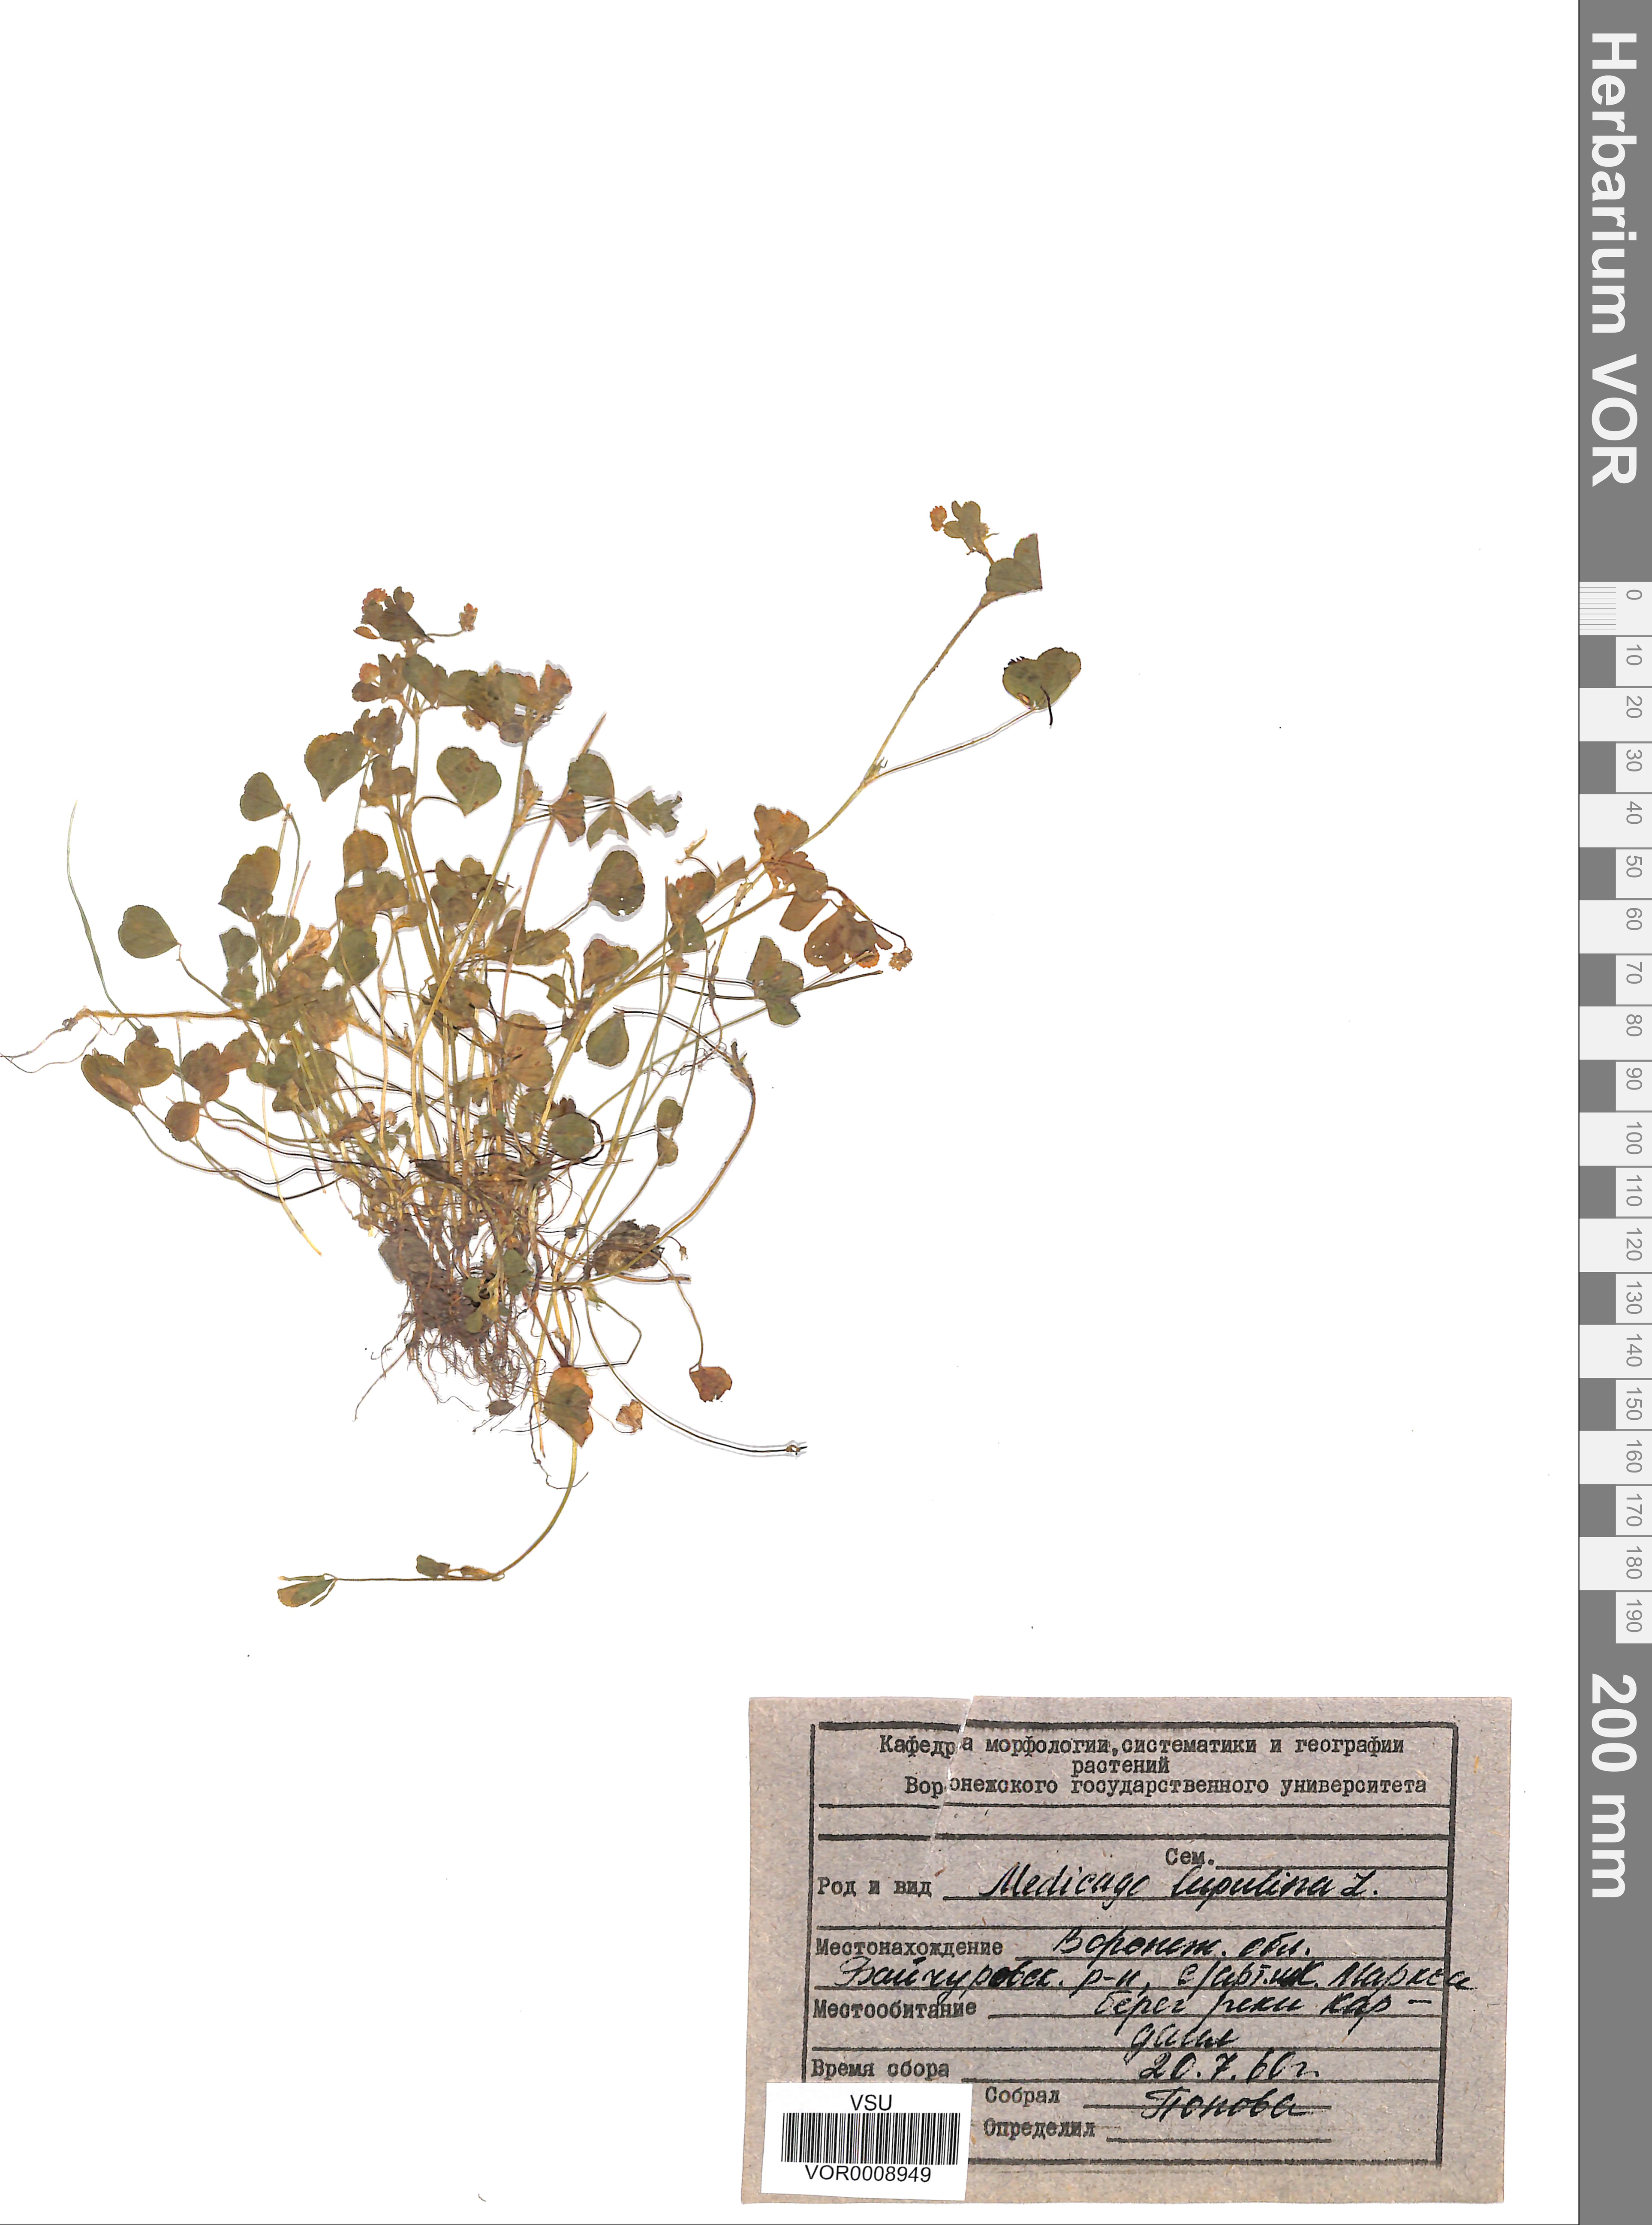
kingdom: Plantae
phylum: Tracheophyta
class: Magnoliopsida
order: Fabales
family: Fabaceae
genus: Medicago
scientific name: Medicago lupulina
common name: Black medick
